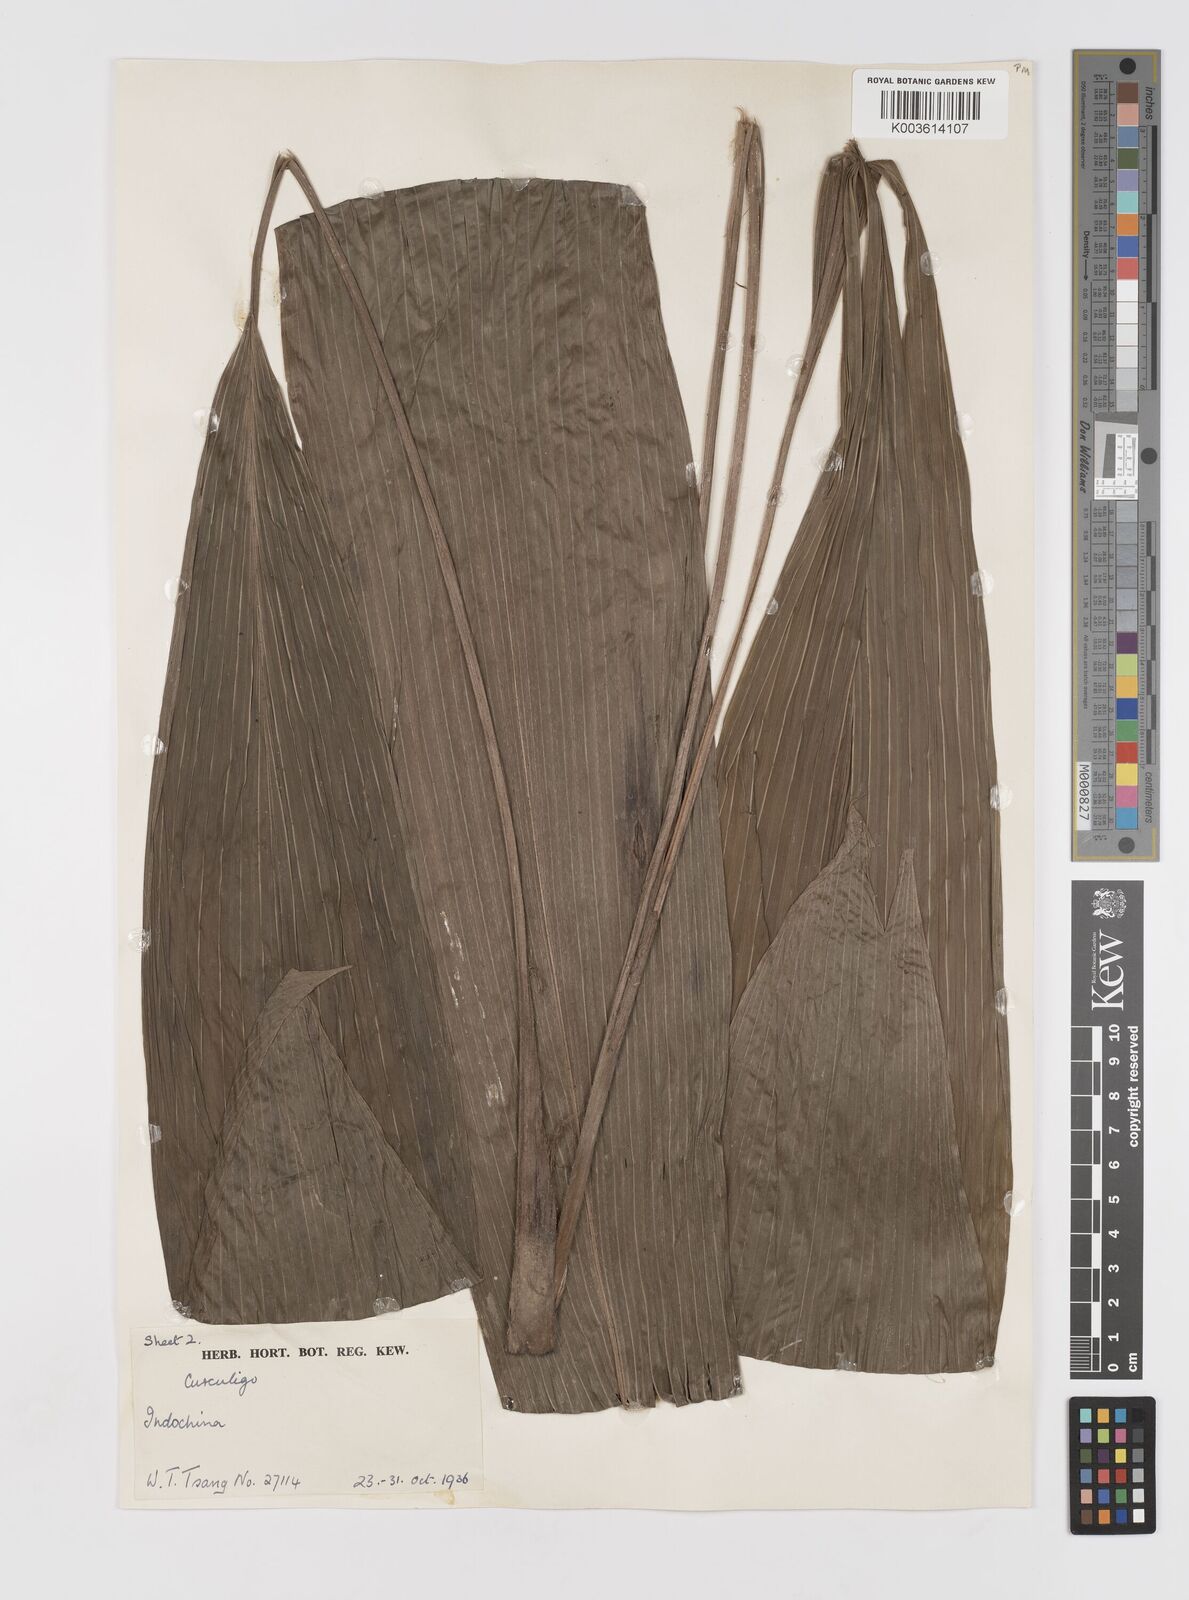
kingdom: Plantae
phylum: Tracheophyta
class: Liliopsida
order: Asparagales
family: Hypoxidaceae
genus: Curculigo
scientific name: Curculigo
